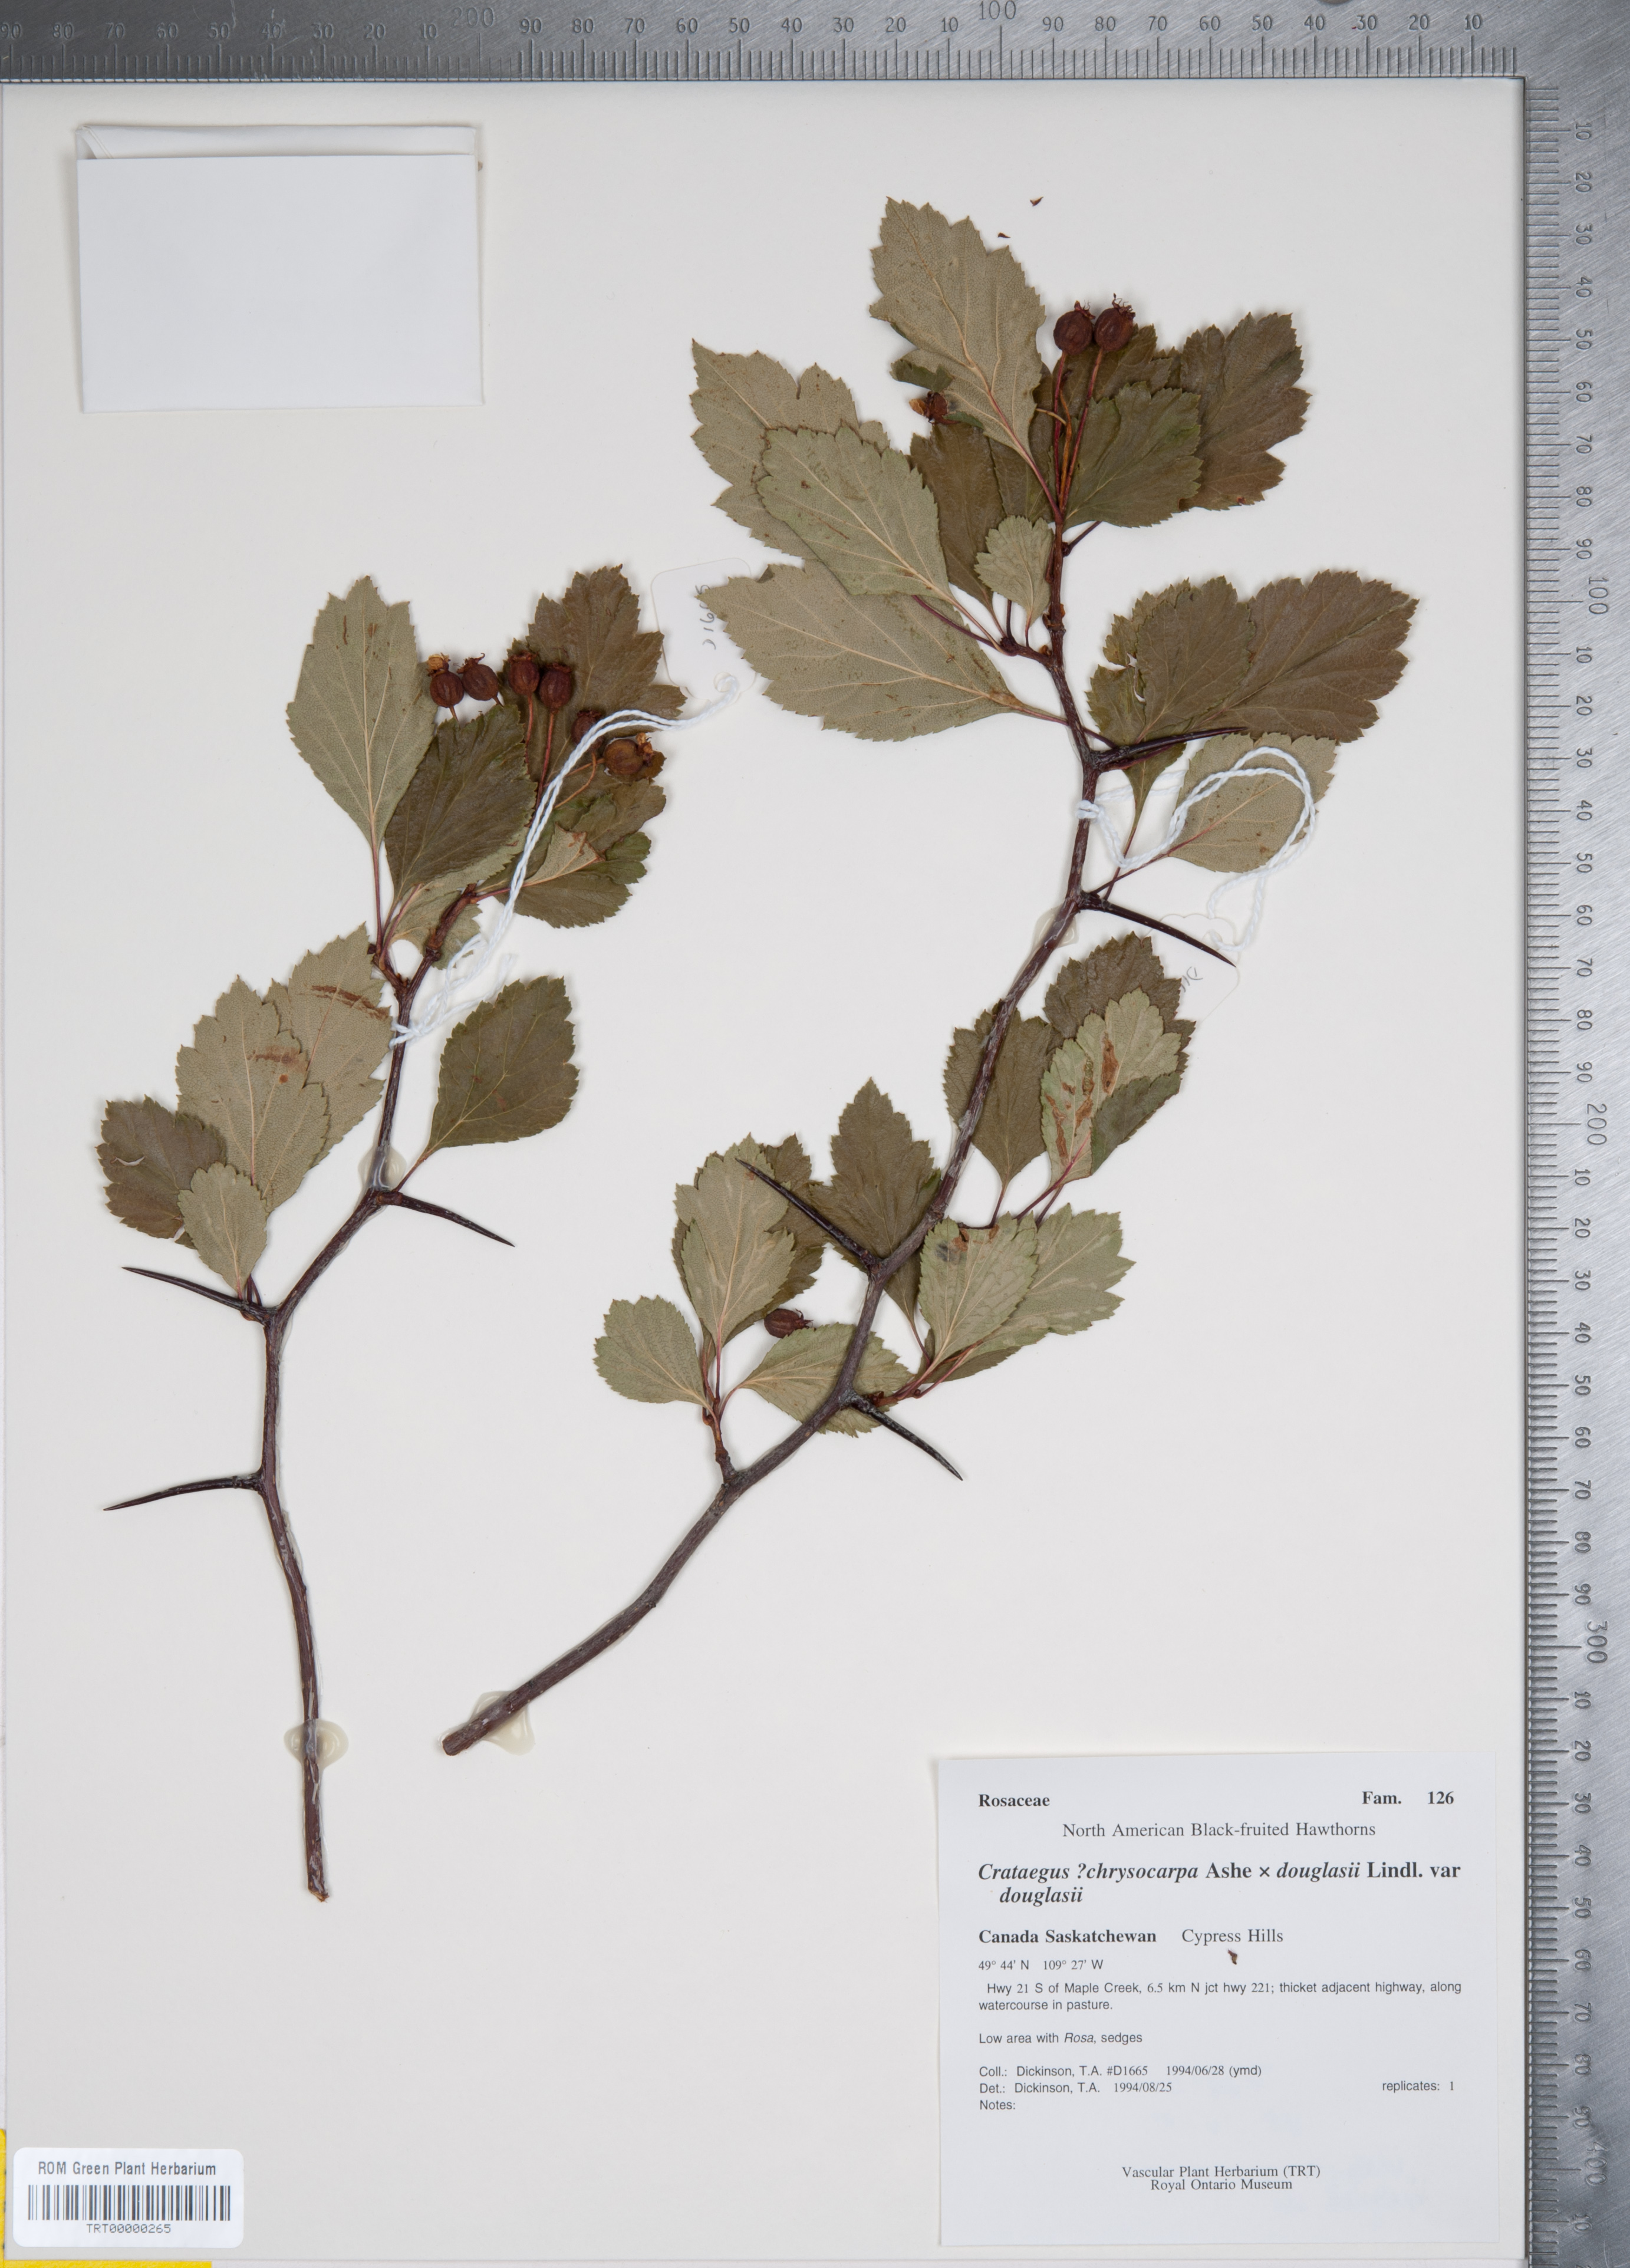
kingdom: Plantae
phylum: Tracheophyta
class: Magnoliopsida
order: Rosales
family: Rosaceae
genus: Crataegus
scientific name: Crataegus
